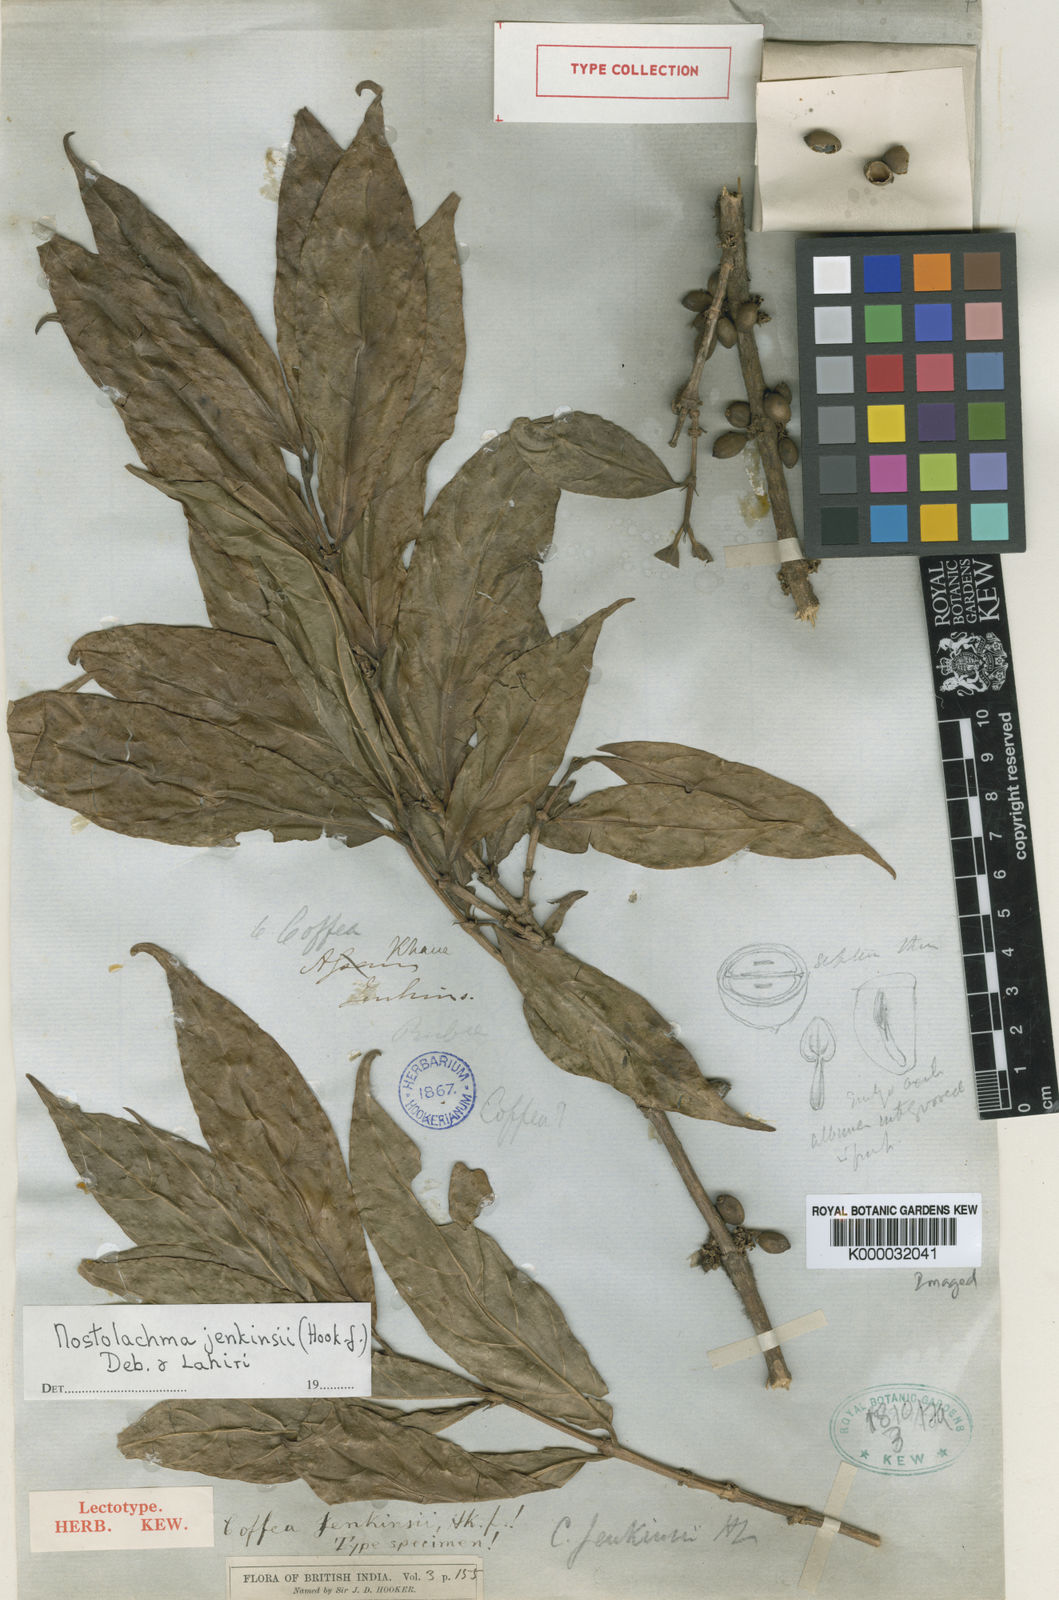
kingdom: Plantae
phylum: Tracheophyta
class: Magnoliopsida
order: Gentianales
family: Rubiaceae
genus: Nostolachma
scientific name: Nostolachma jenkinsii
